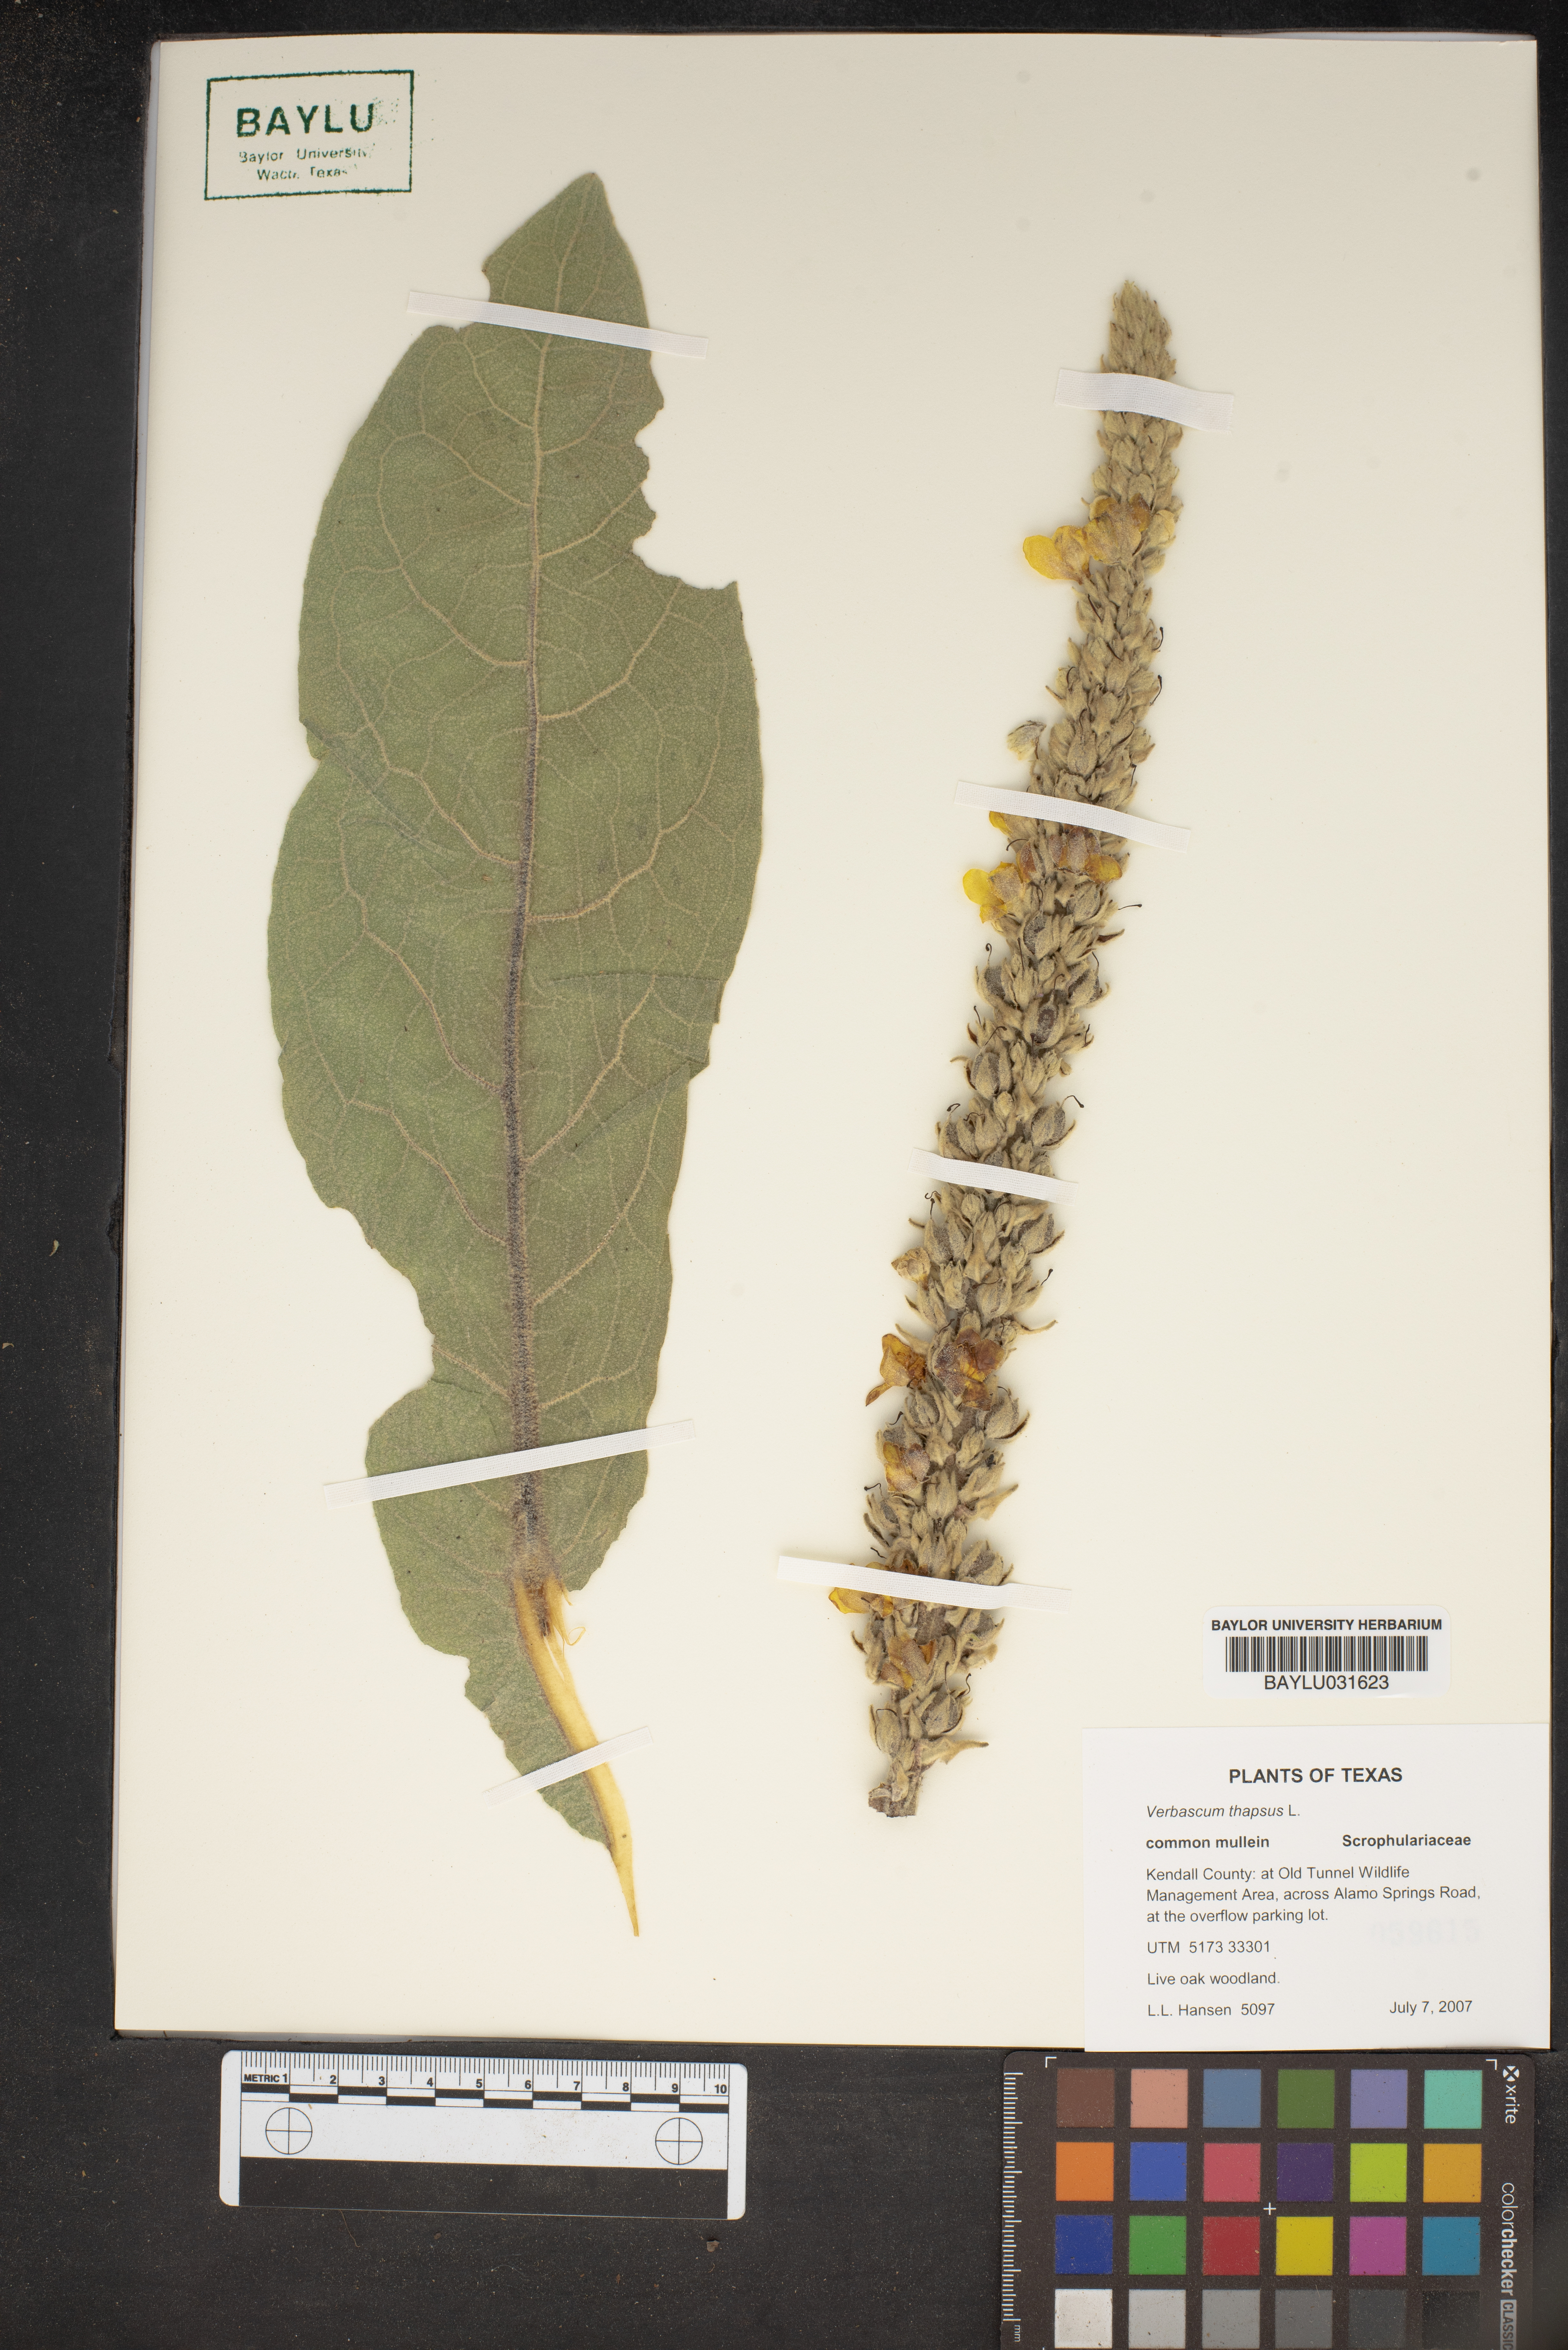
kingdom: Plantae
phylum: Tracheophyta
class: Magnoliopsida
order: Lamiales
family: Scrophulariaceae
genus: Verbascum
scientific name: Verbascum thapsus
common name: Common mullein
